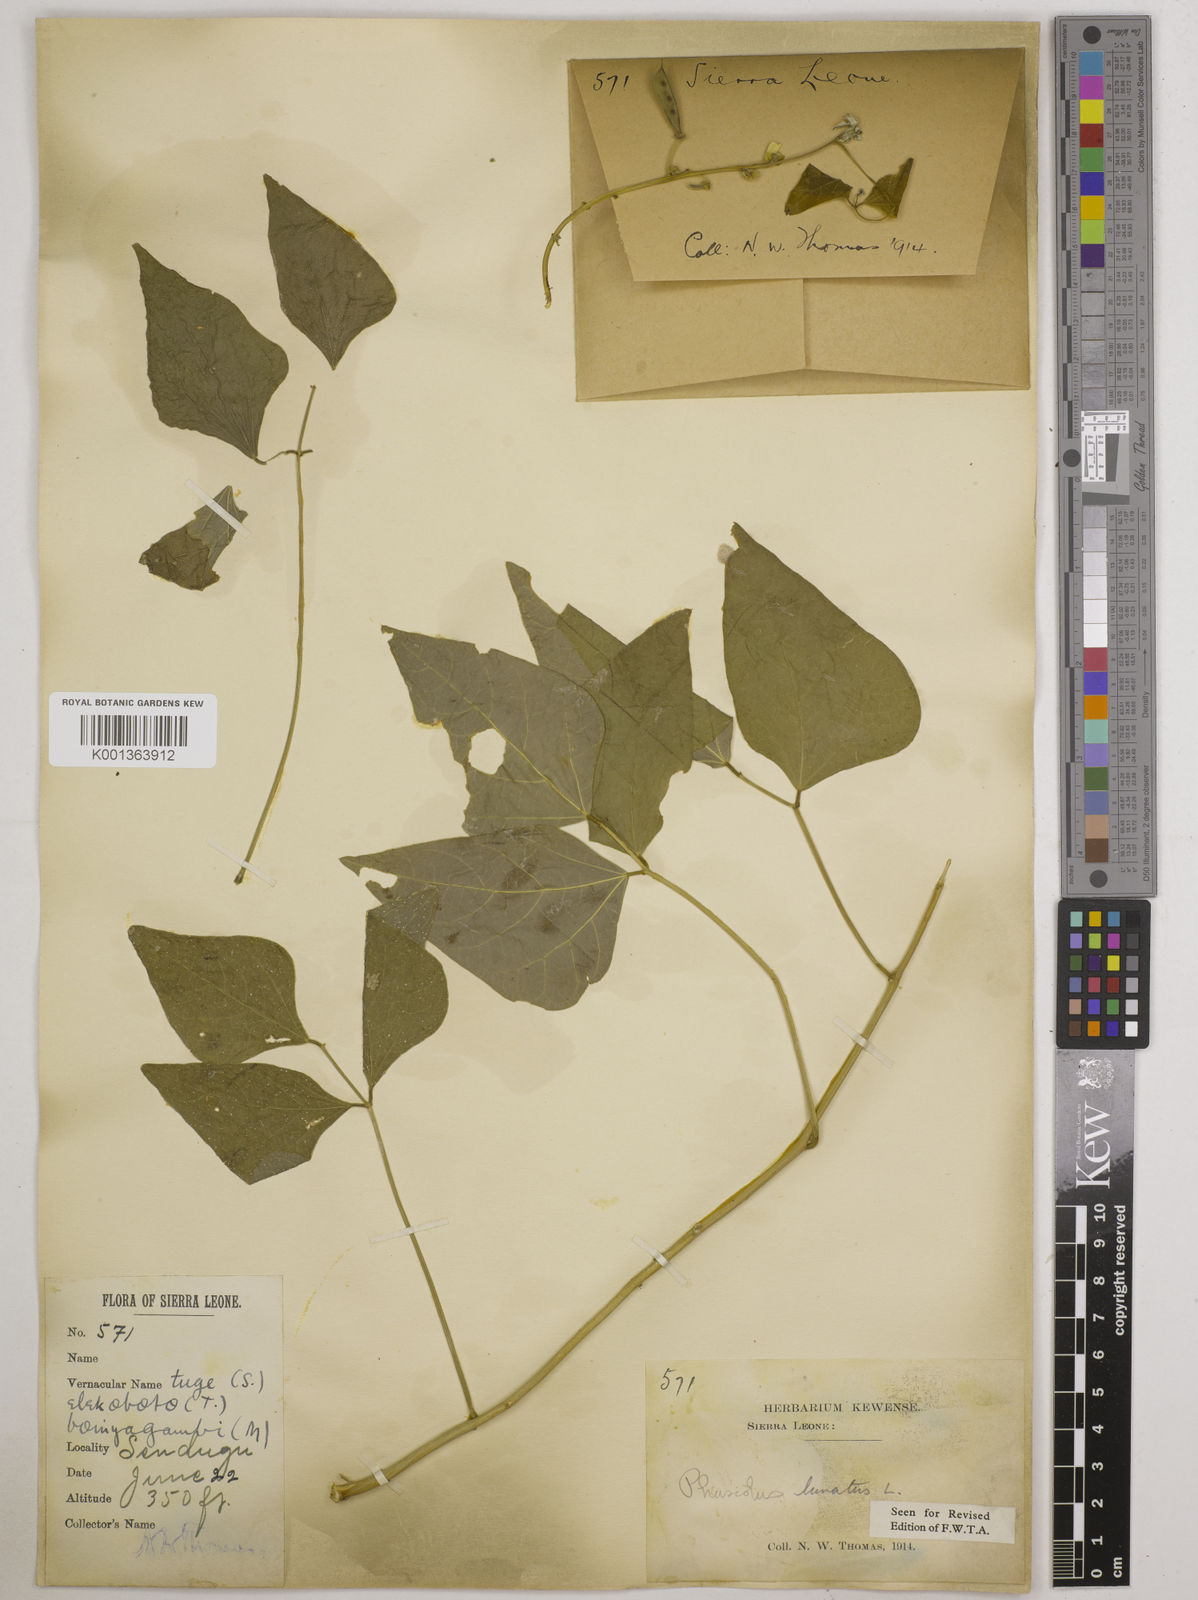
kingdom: Plantae
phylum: Tracheophyta
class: Magnoliopsida
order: Fabales
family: Fabaceae
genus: Phaseolus
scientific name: Phaseolus lunatus
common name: Sieva bean
